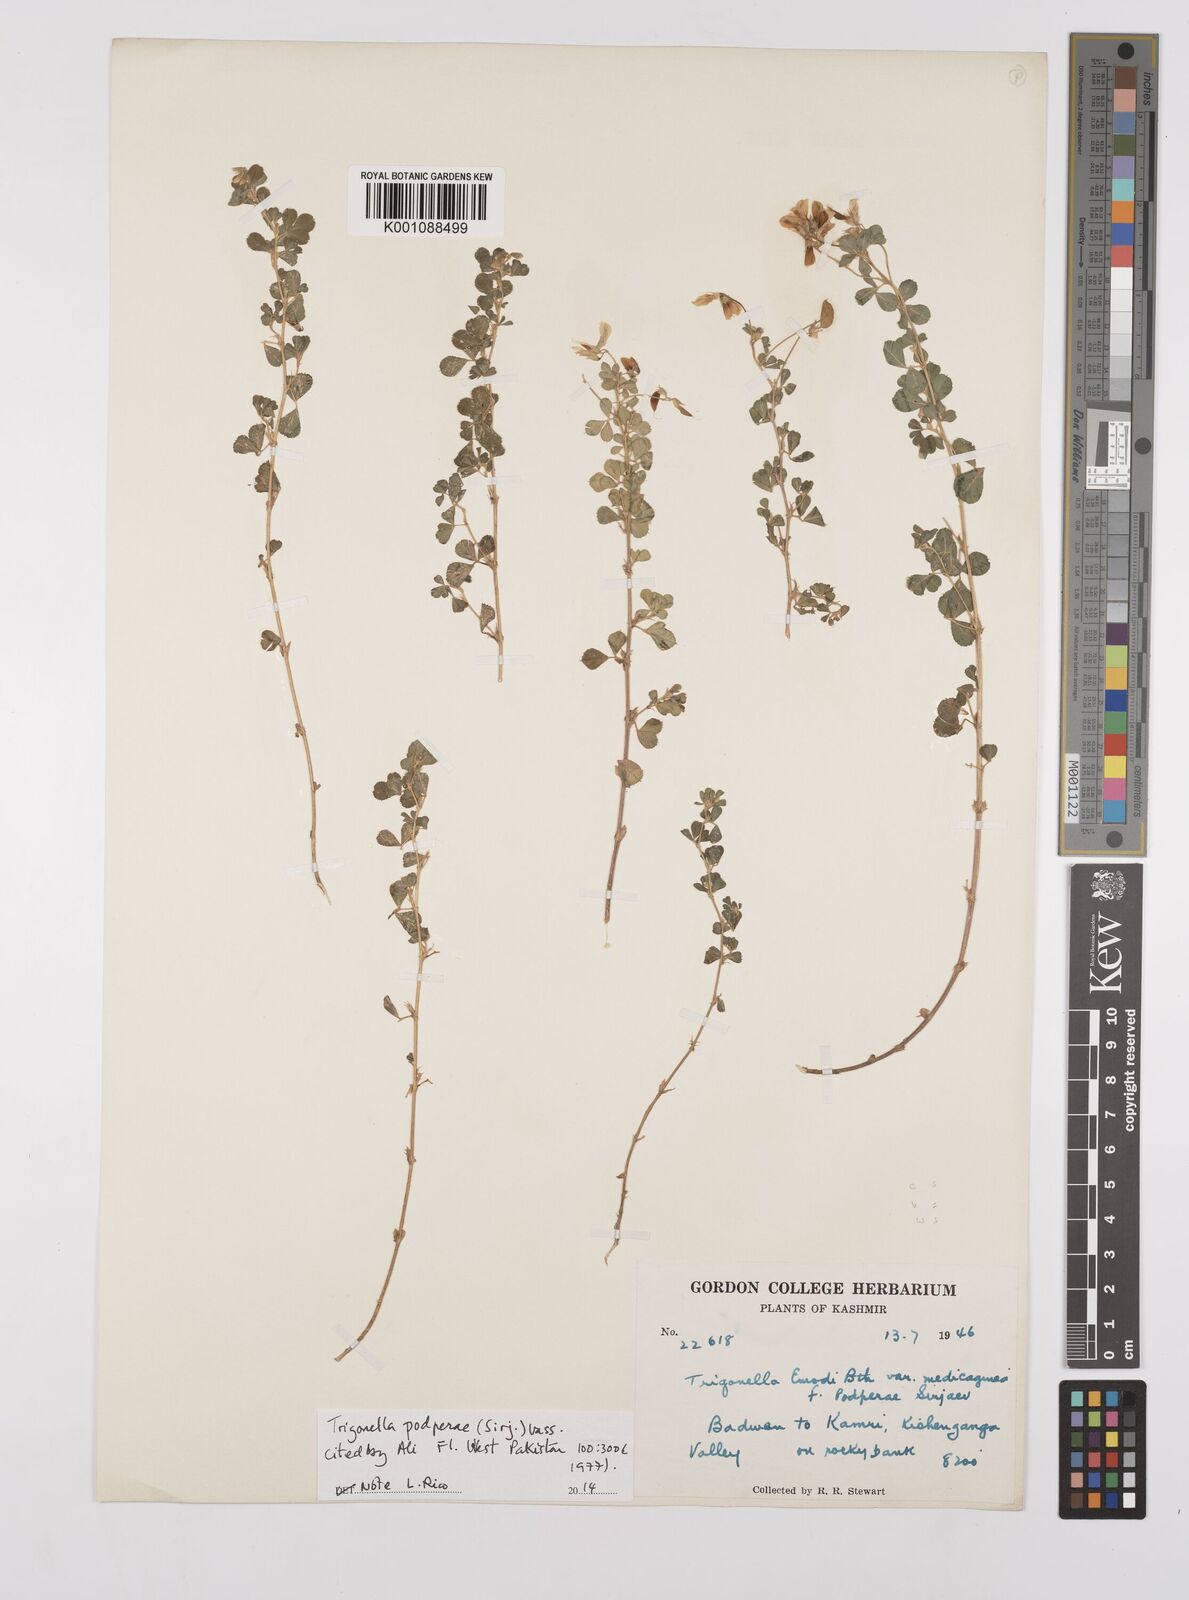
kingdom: Plantae
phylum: Tracheophyta
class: Magnoliopsida
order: Fabales
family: Fabaceae
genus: Trigonella
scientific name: Trigonella podperae
